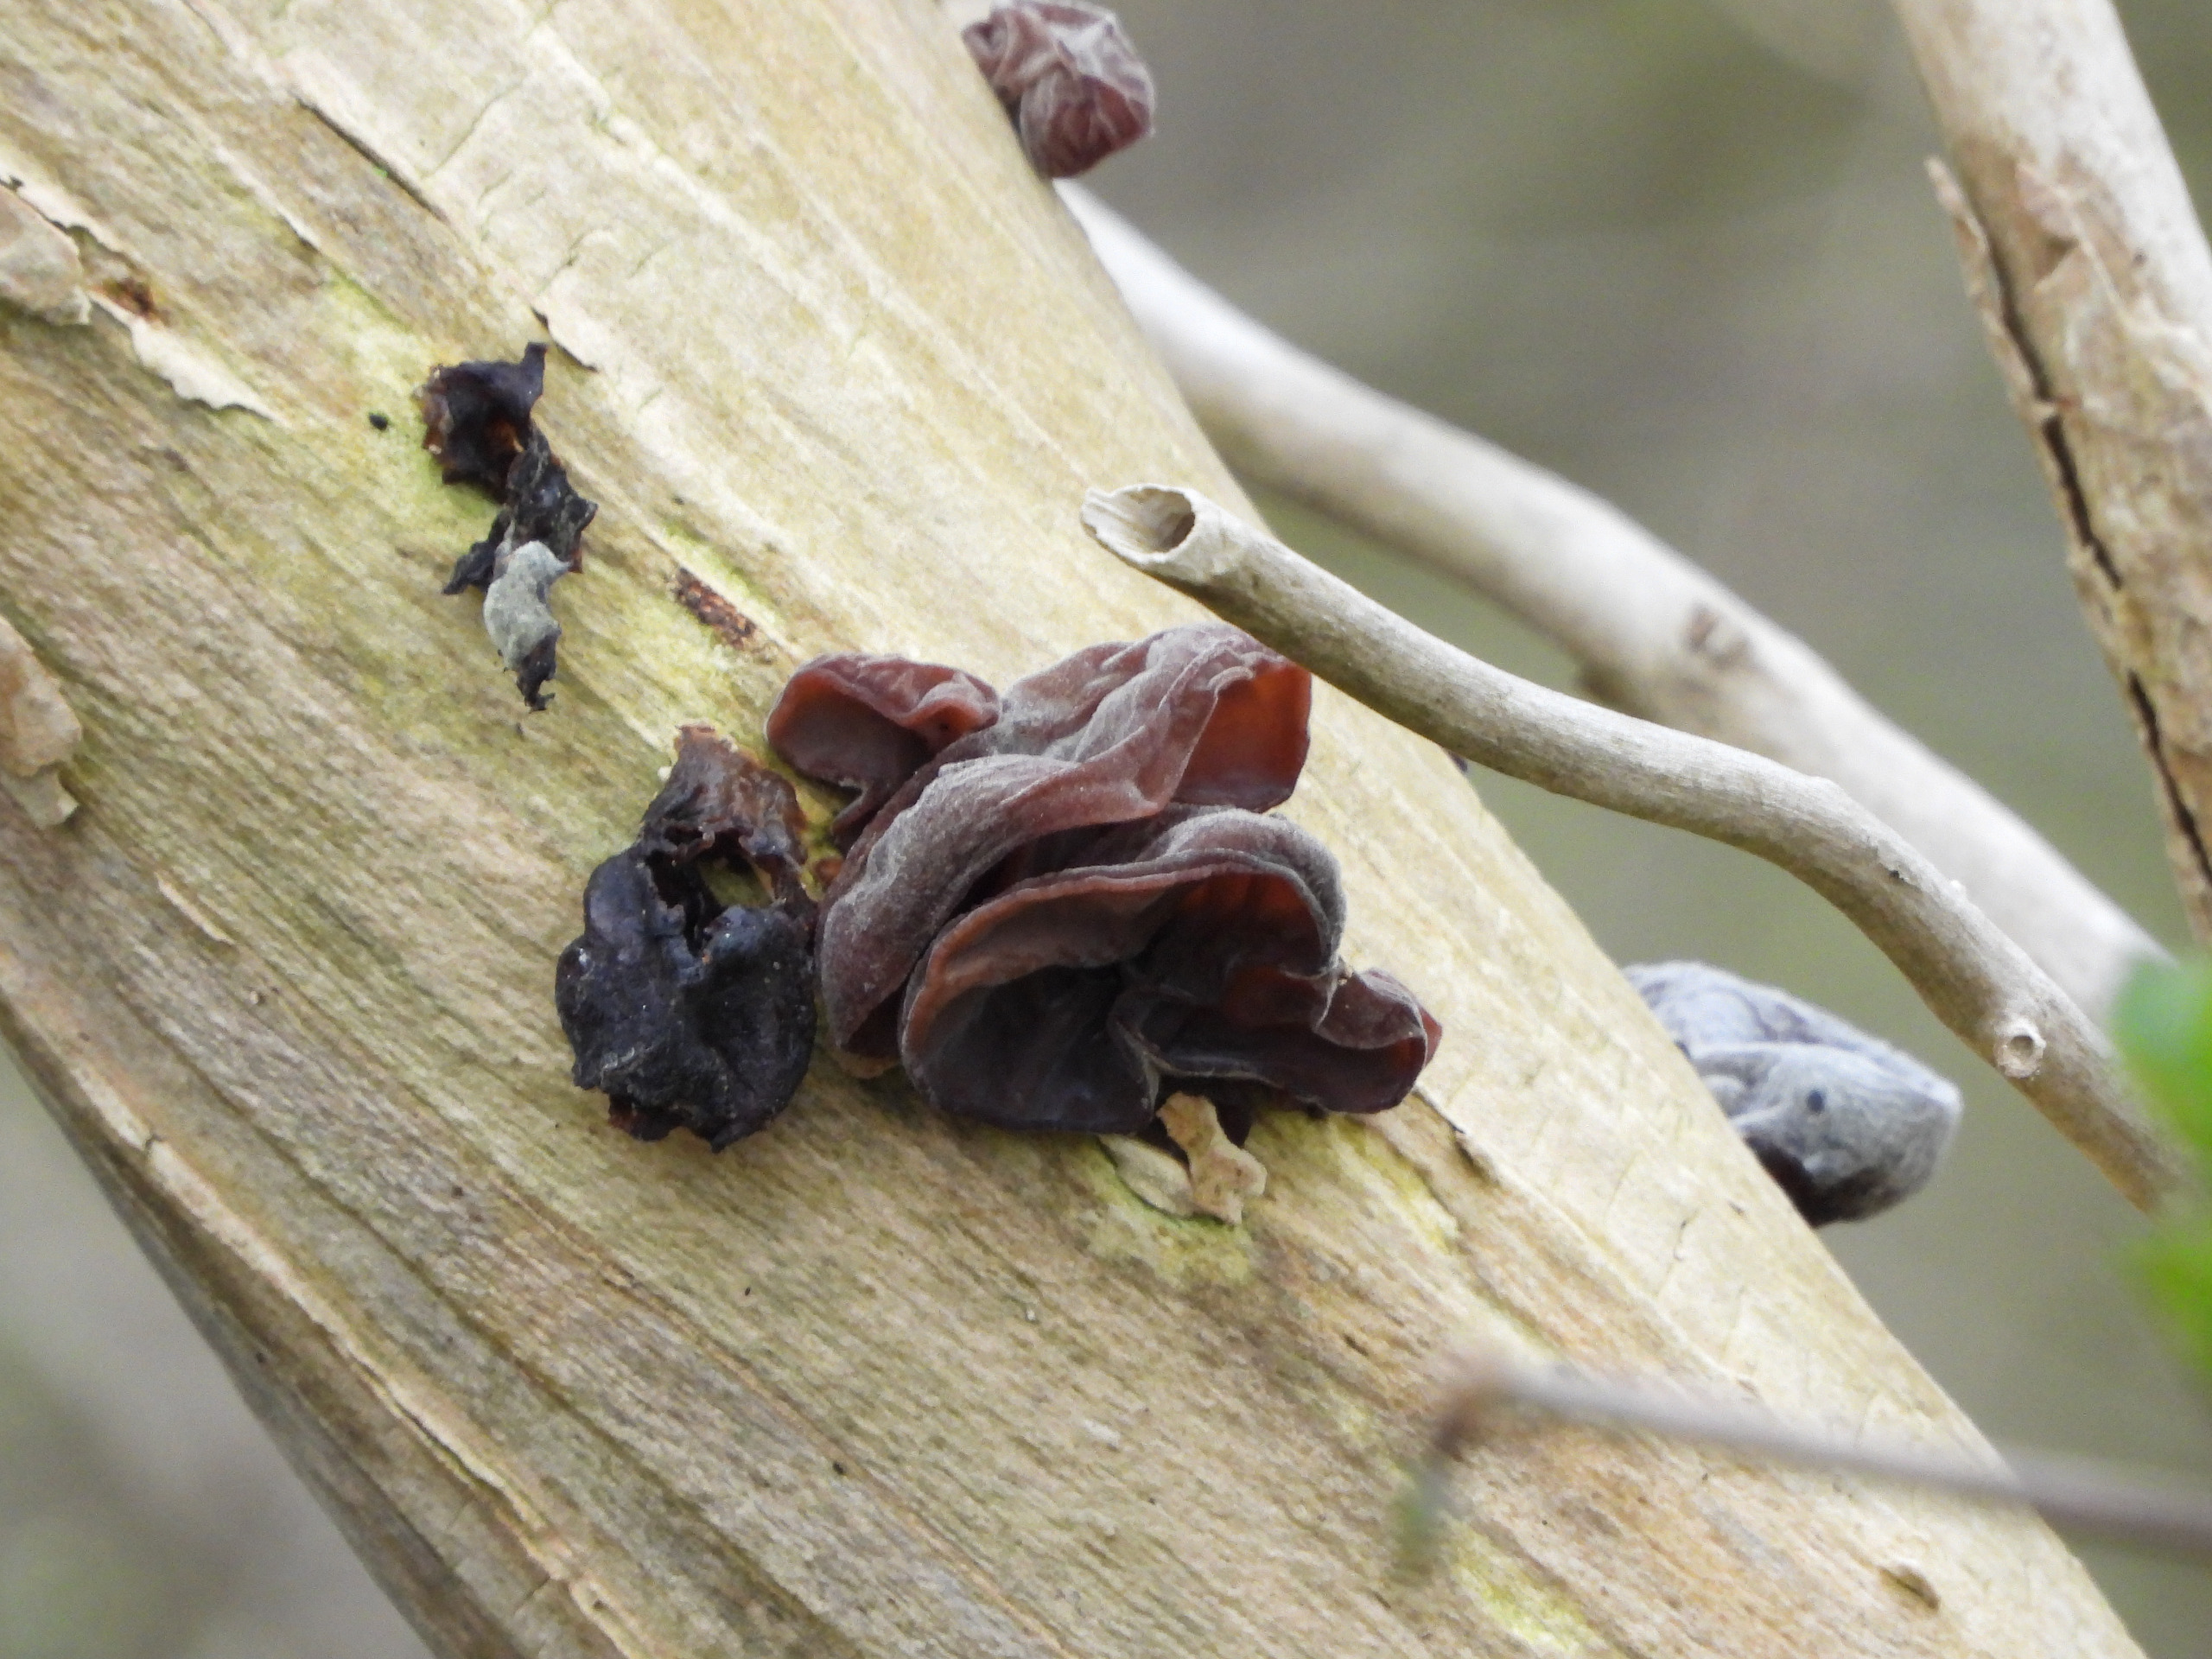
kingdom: Fungi
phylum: Basidiomycota
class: Agaricomycetes
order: Auriculariales
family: Auriculariaceae
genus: Auricularia
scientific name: Auricularia auricula-judae
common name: Almindelig judasøre
